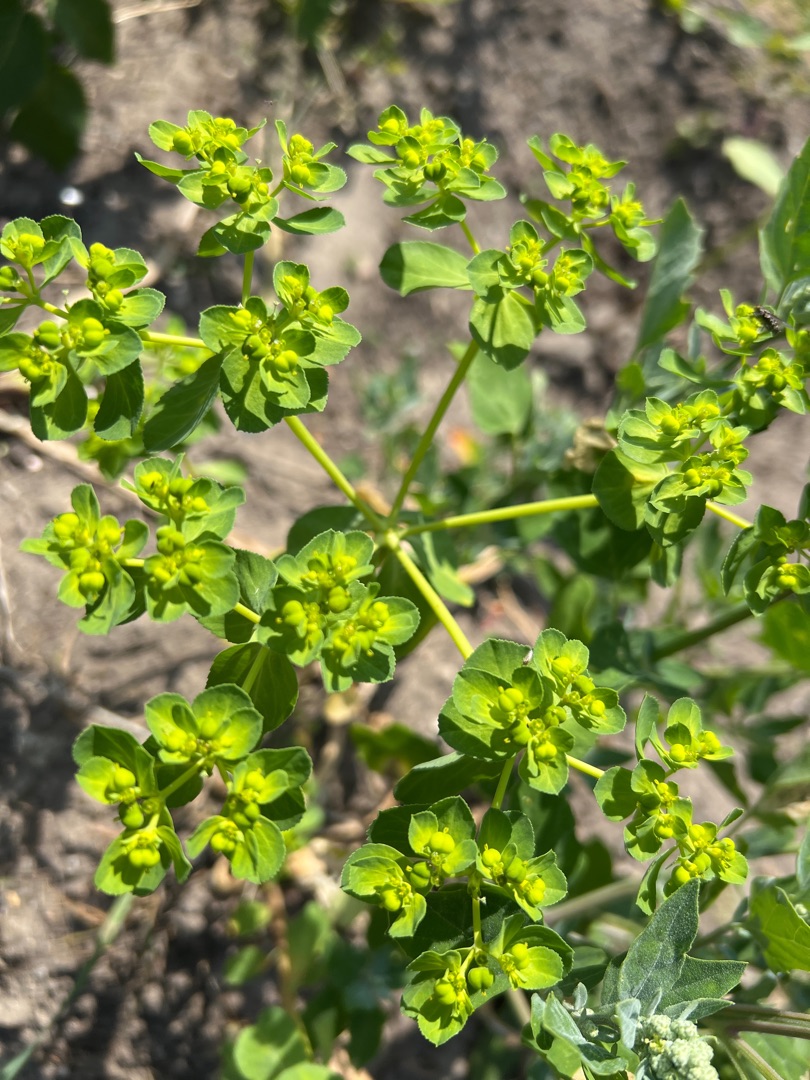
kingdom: Plantae
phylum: Tracheophyta
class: Magnoliopsida
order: Malpighiales
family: Euphorbiaceae
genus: Euphorbia
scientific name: Euphorbia helioscopia
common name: Skærm-vortemælk
